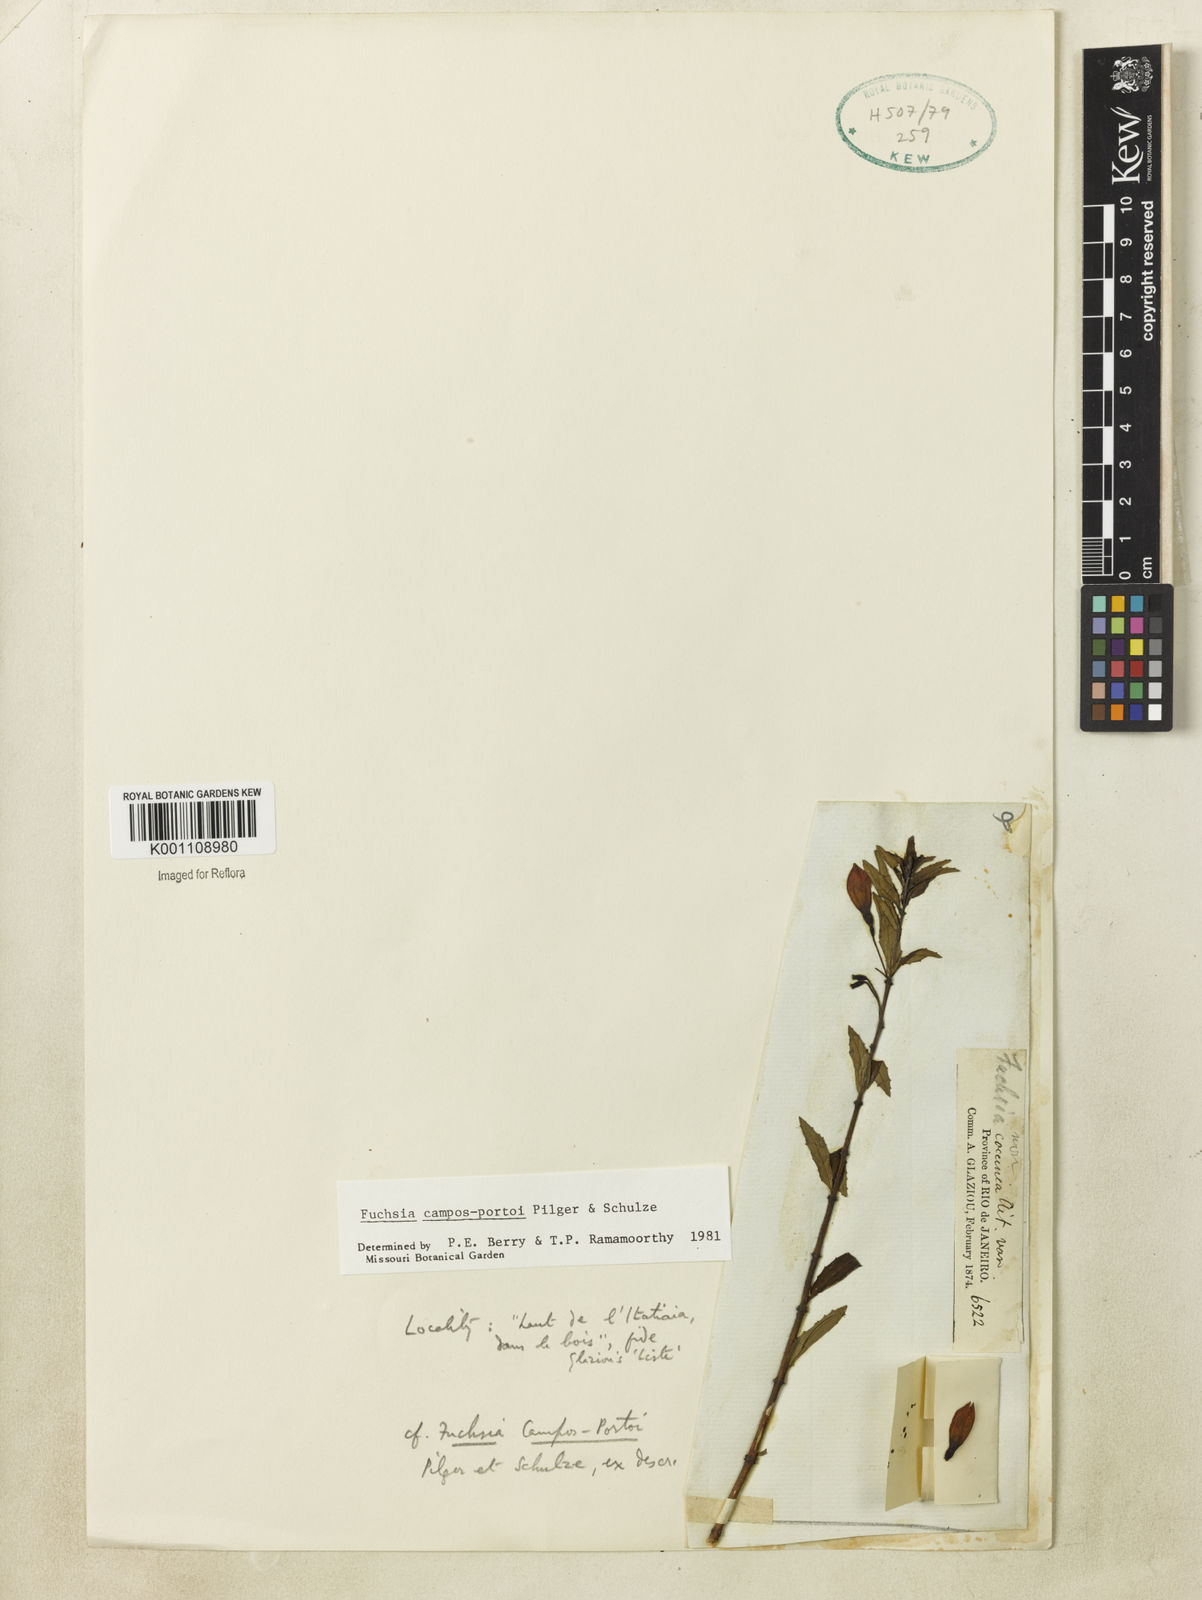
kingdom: Plantae
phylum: Tracheophyta
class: Magnoliopsida
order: Myrtales
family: Onagraceae
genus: Fuchsia
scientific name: Fuchsia campos-portoi
